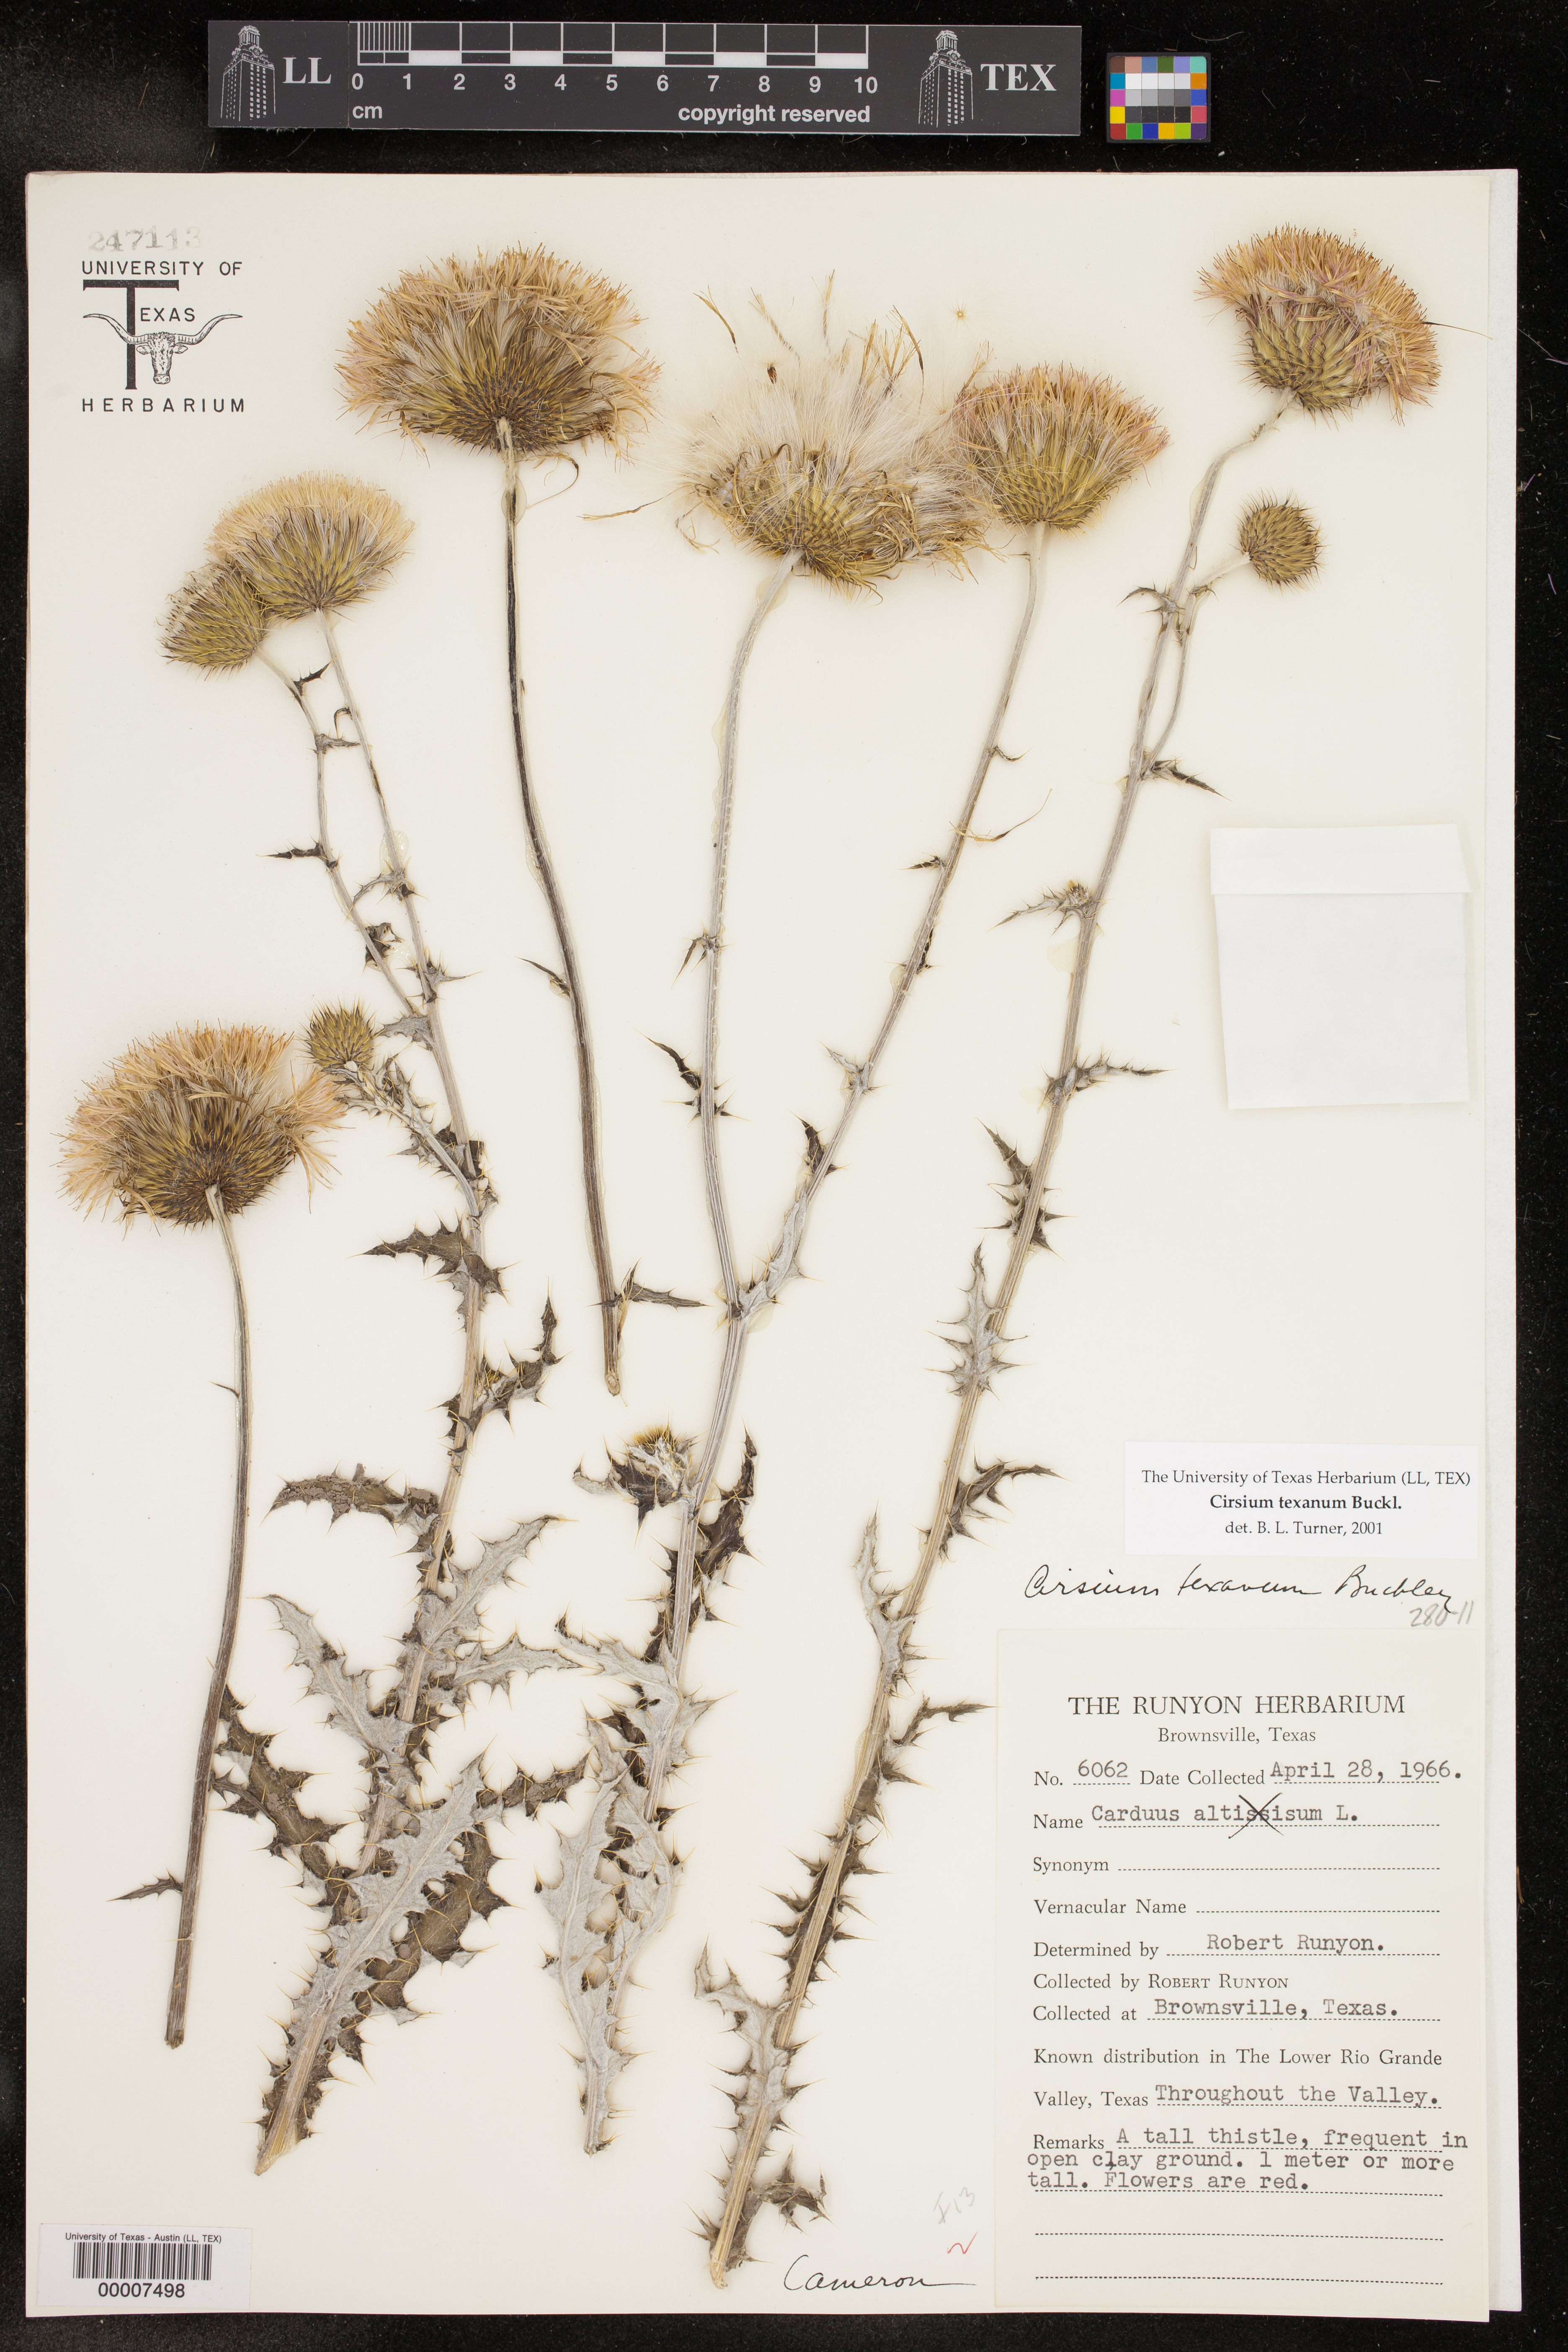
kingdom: Plantae
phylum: Tracheophyta
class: Magnoliopsida
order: Asterales
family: Asteraceae
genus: Cirsium
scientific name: Cirsium texanum
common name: Texas purple thistle
